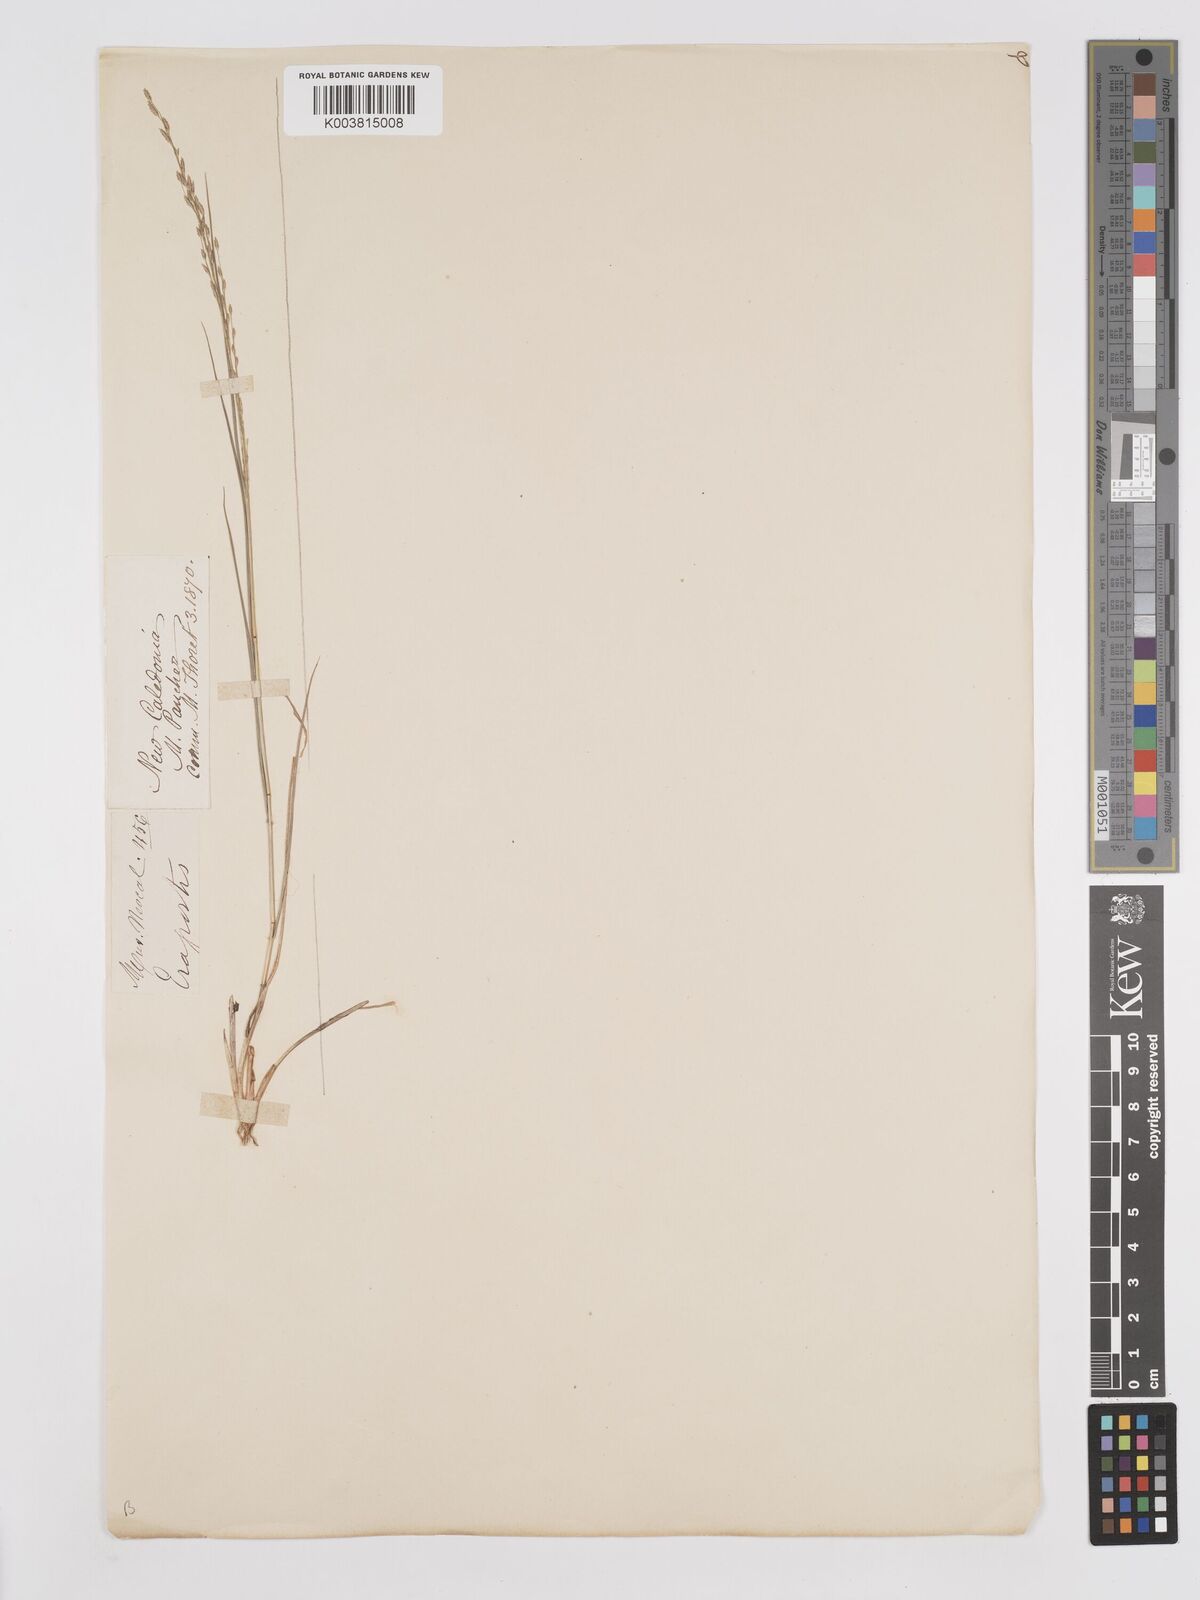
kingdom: Plantae
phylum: Tracheophyta
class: Liliopsida
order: Poales
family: Poaceae
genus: Eragrostis
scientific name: Eragrostis parviflora
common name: Weeping love-grass
